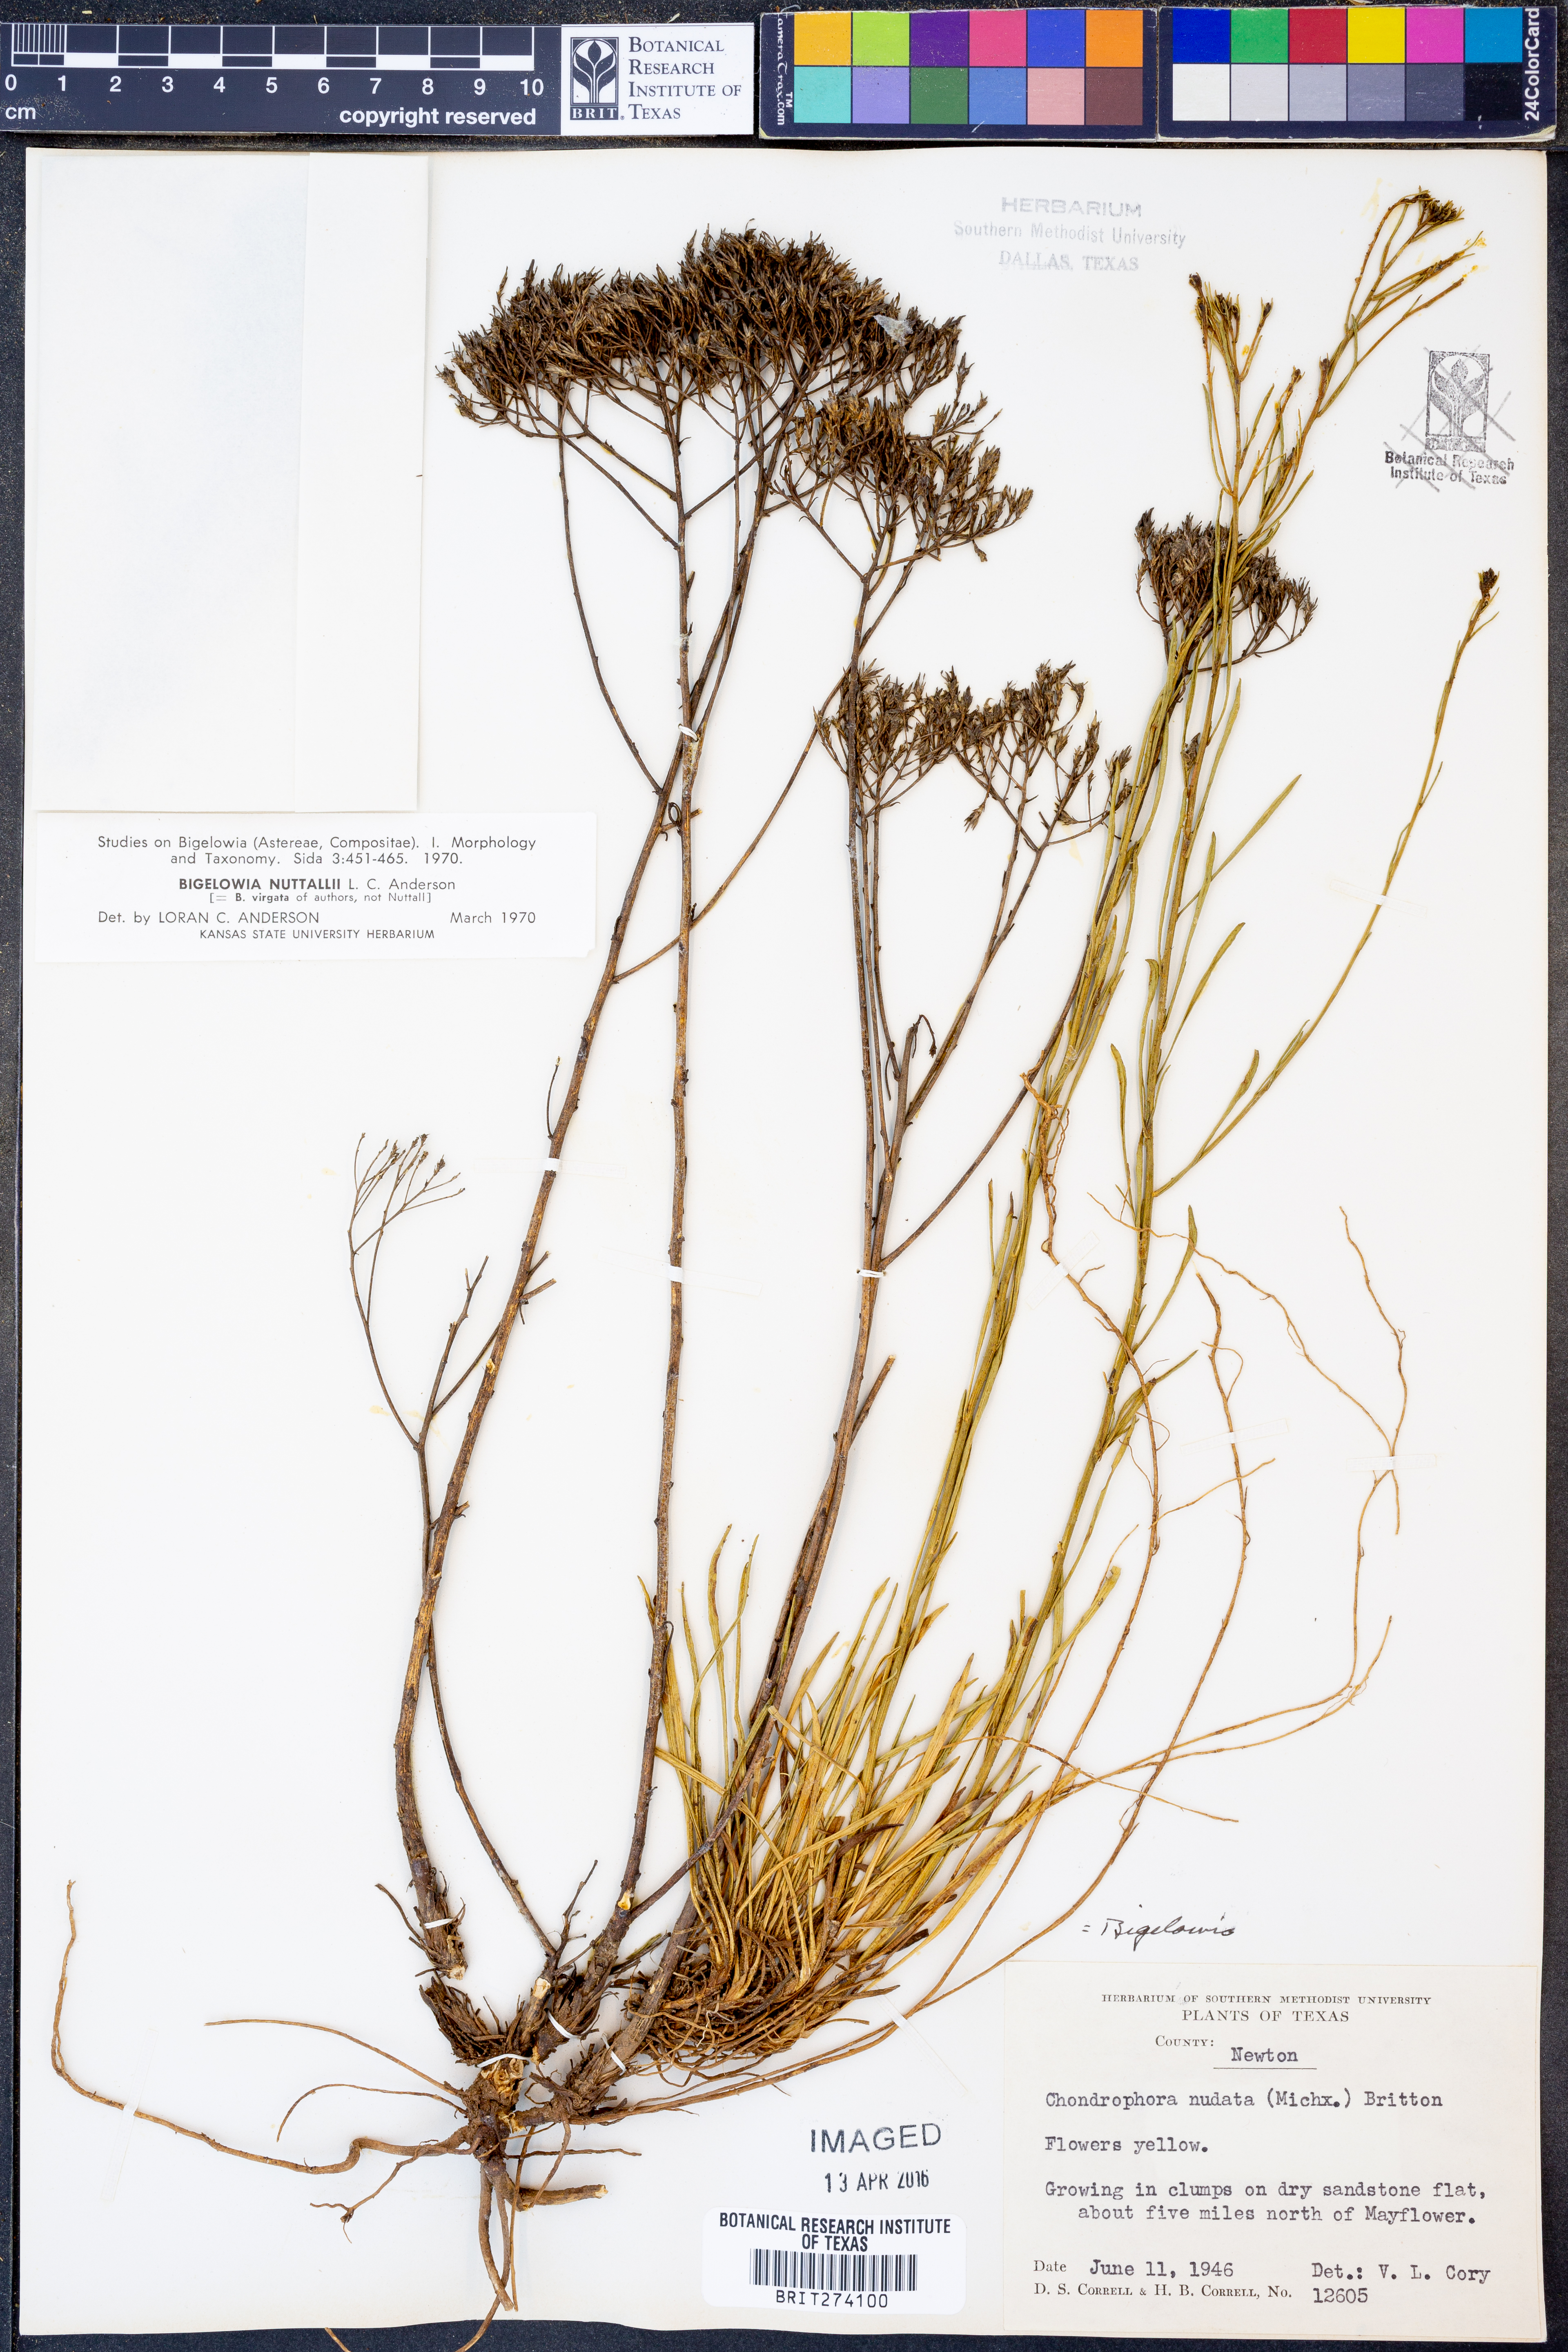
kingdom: Plantae
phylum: Tracheophyta
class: Magnoliopsida
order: Asterales
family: Asteraceae
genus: Bigelowia
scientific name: Bigelowia nuttallii
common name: Nuttall's rayless-goldenrod
